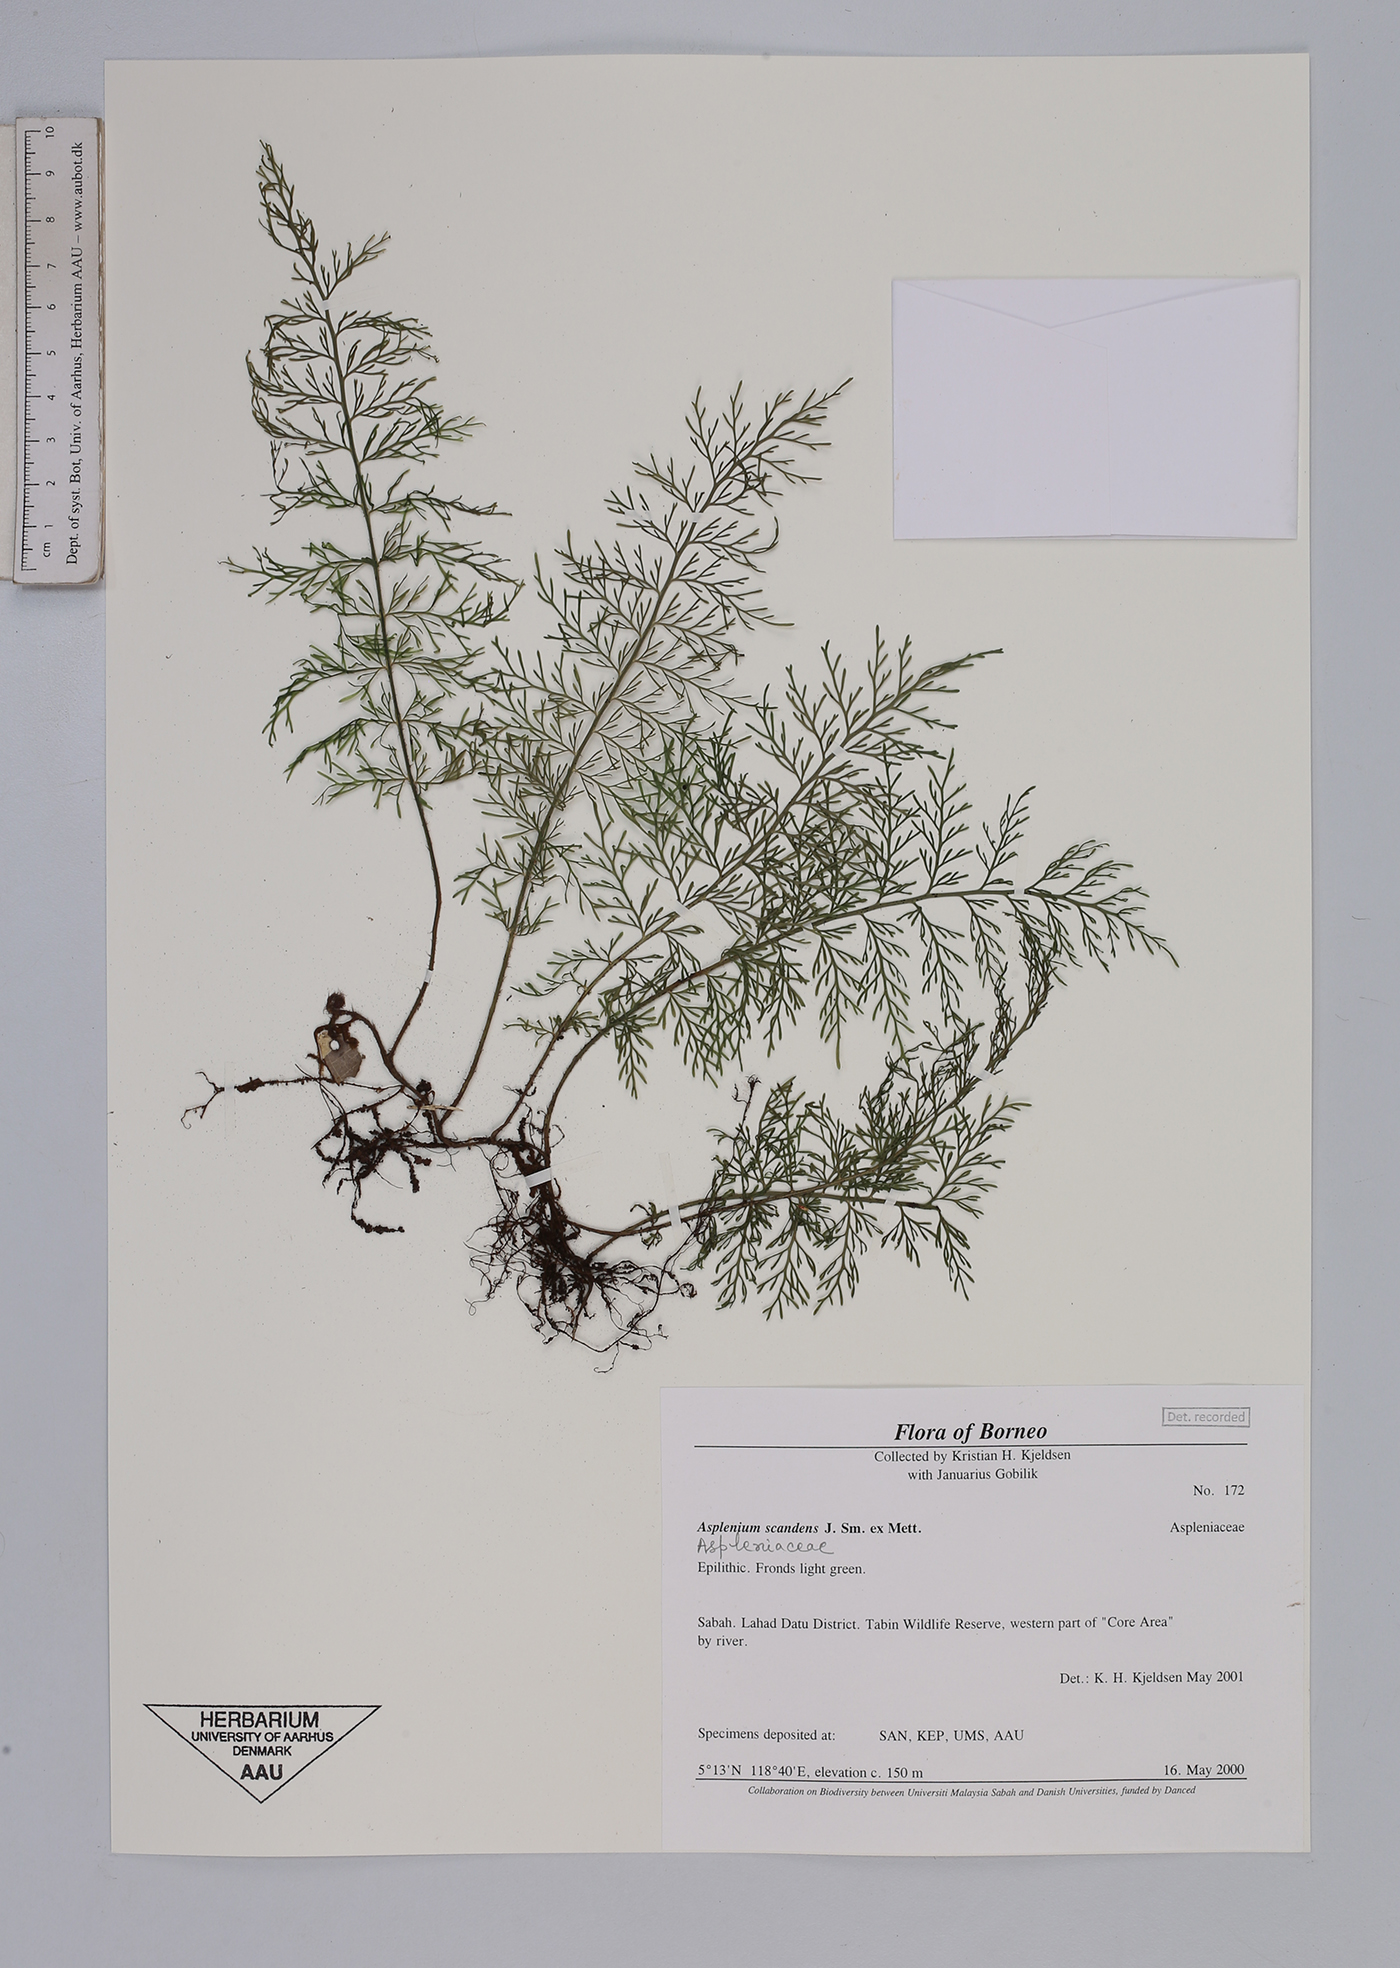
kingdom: Plantae
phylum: Tracheophyta
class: Polypodiopsida
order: Polypodiales
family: Aspleniaceae
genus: Asplenium
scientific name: Asplenium scandens
